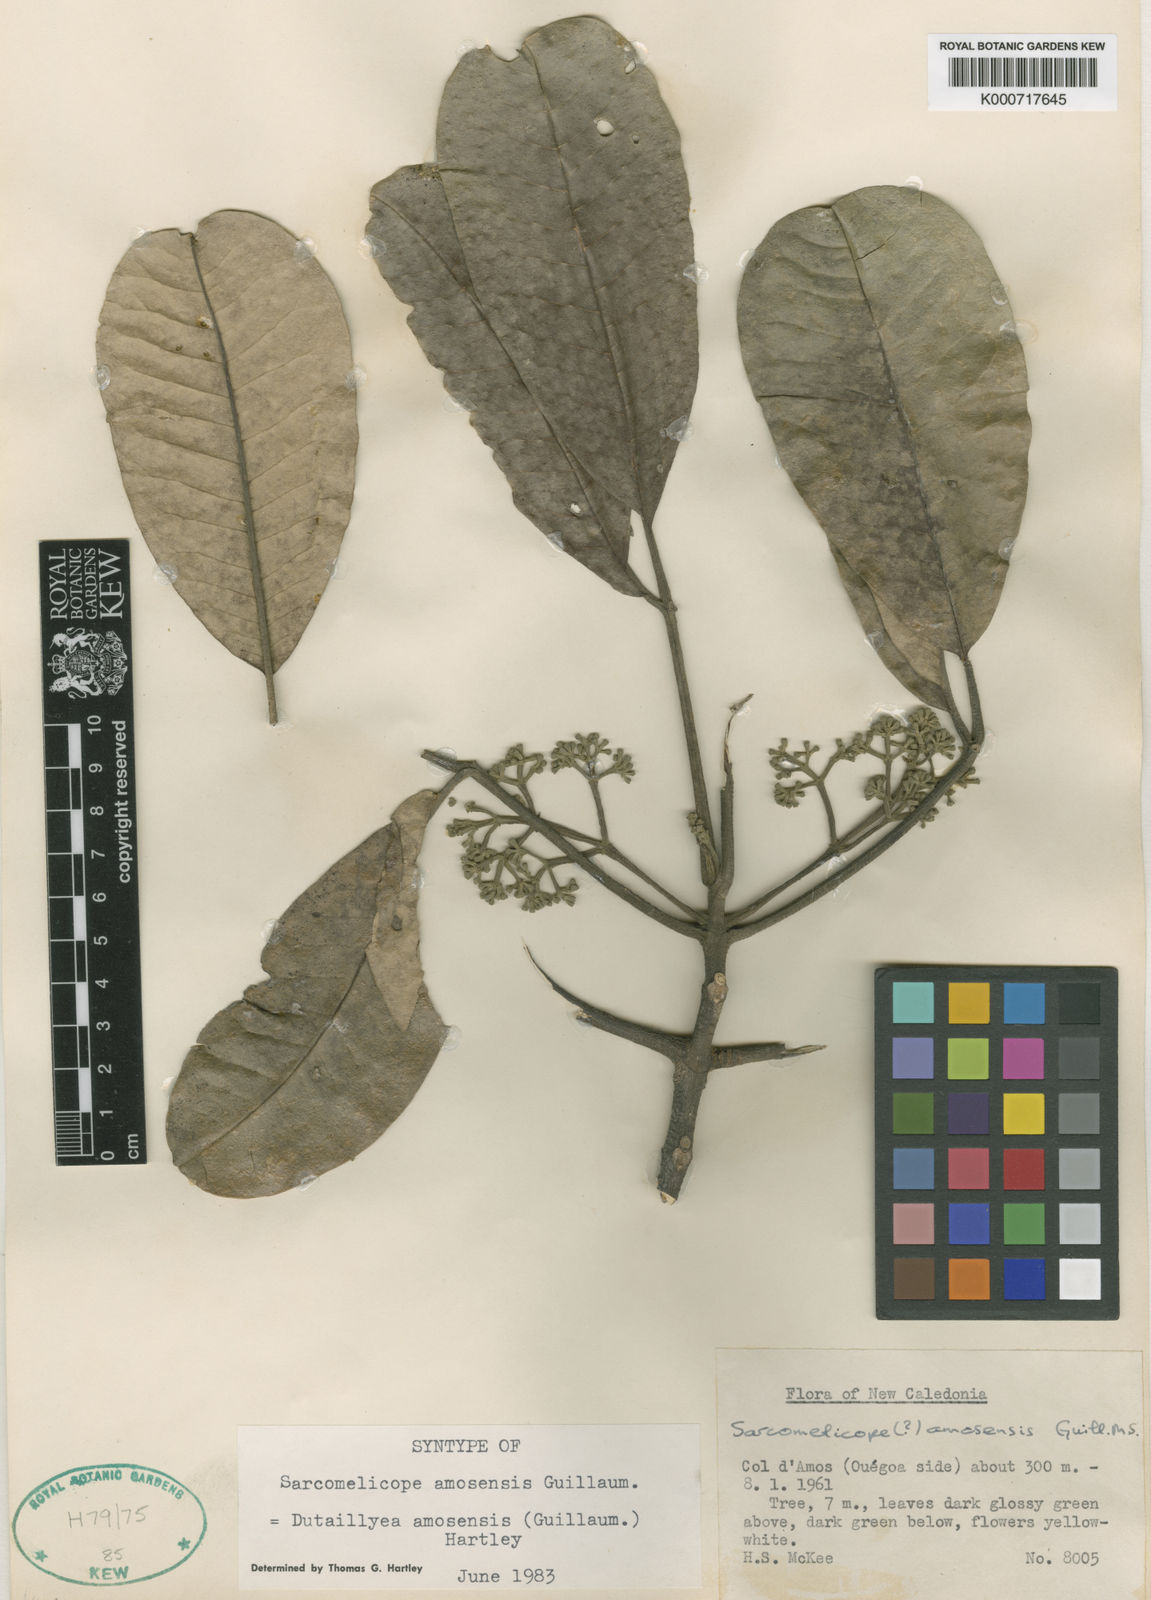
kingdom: Plantae
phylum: Tracheophyta
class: Magnoliopsida
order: Sapindales
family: Rutaceae
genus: Dutaillyea
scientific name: Dutaillyea amosensis
